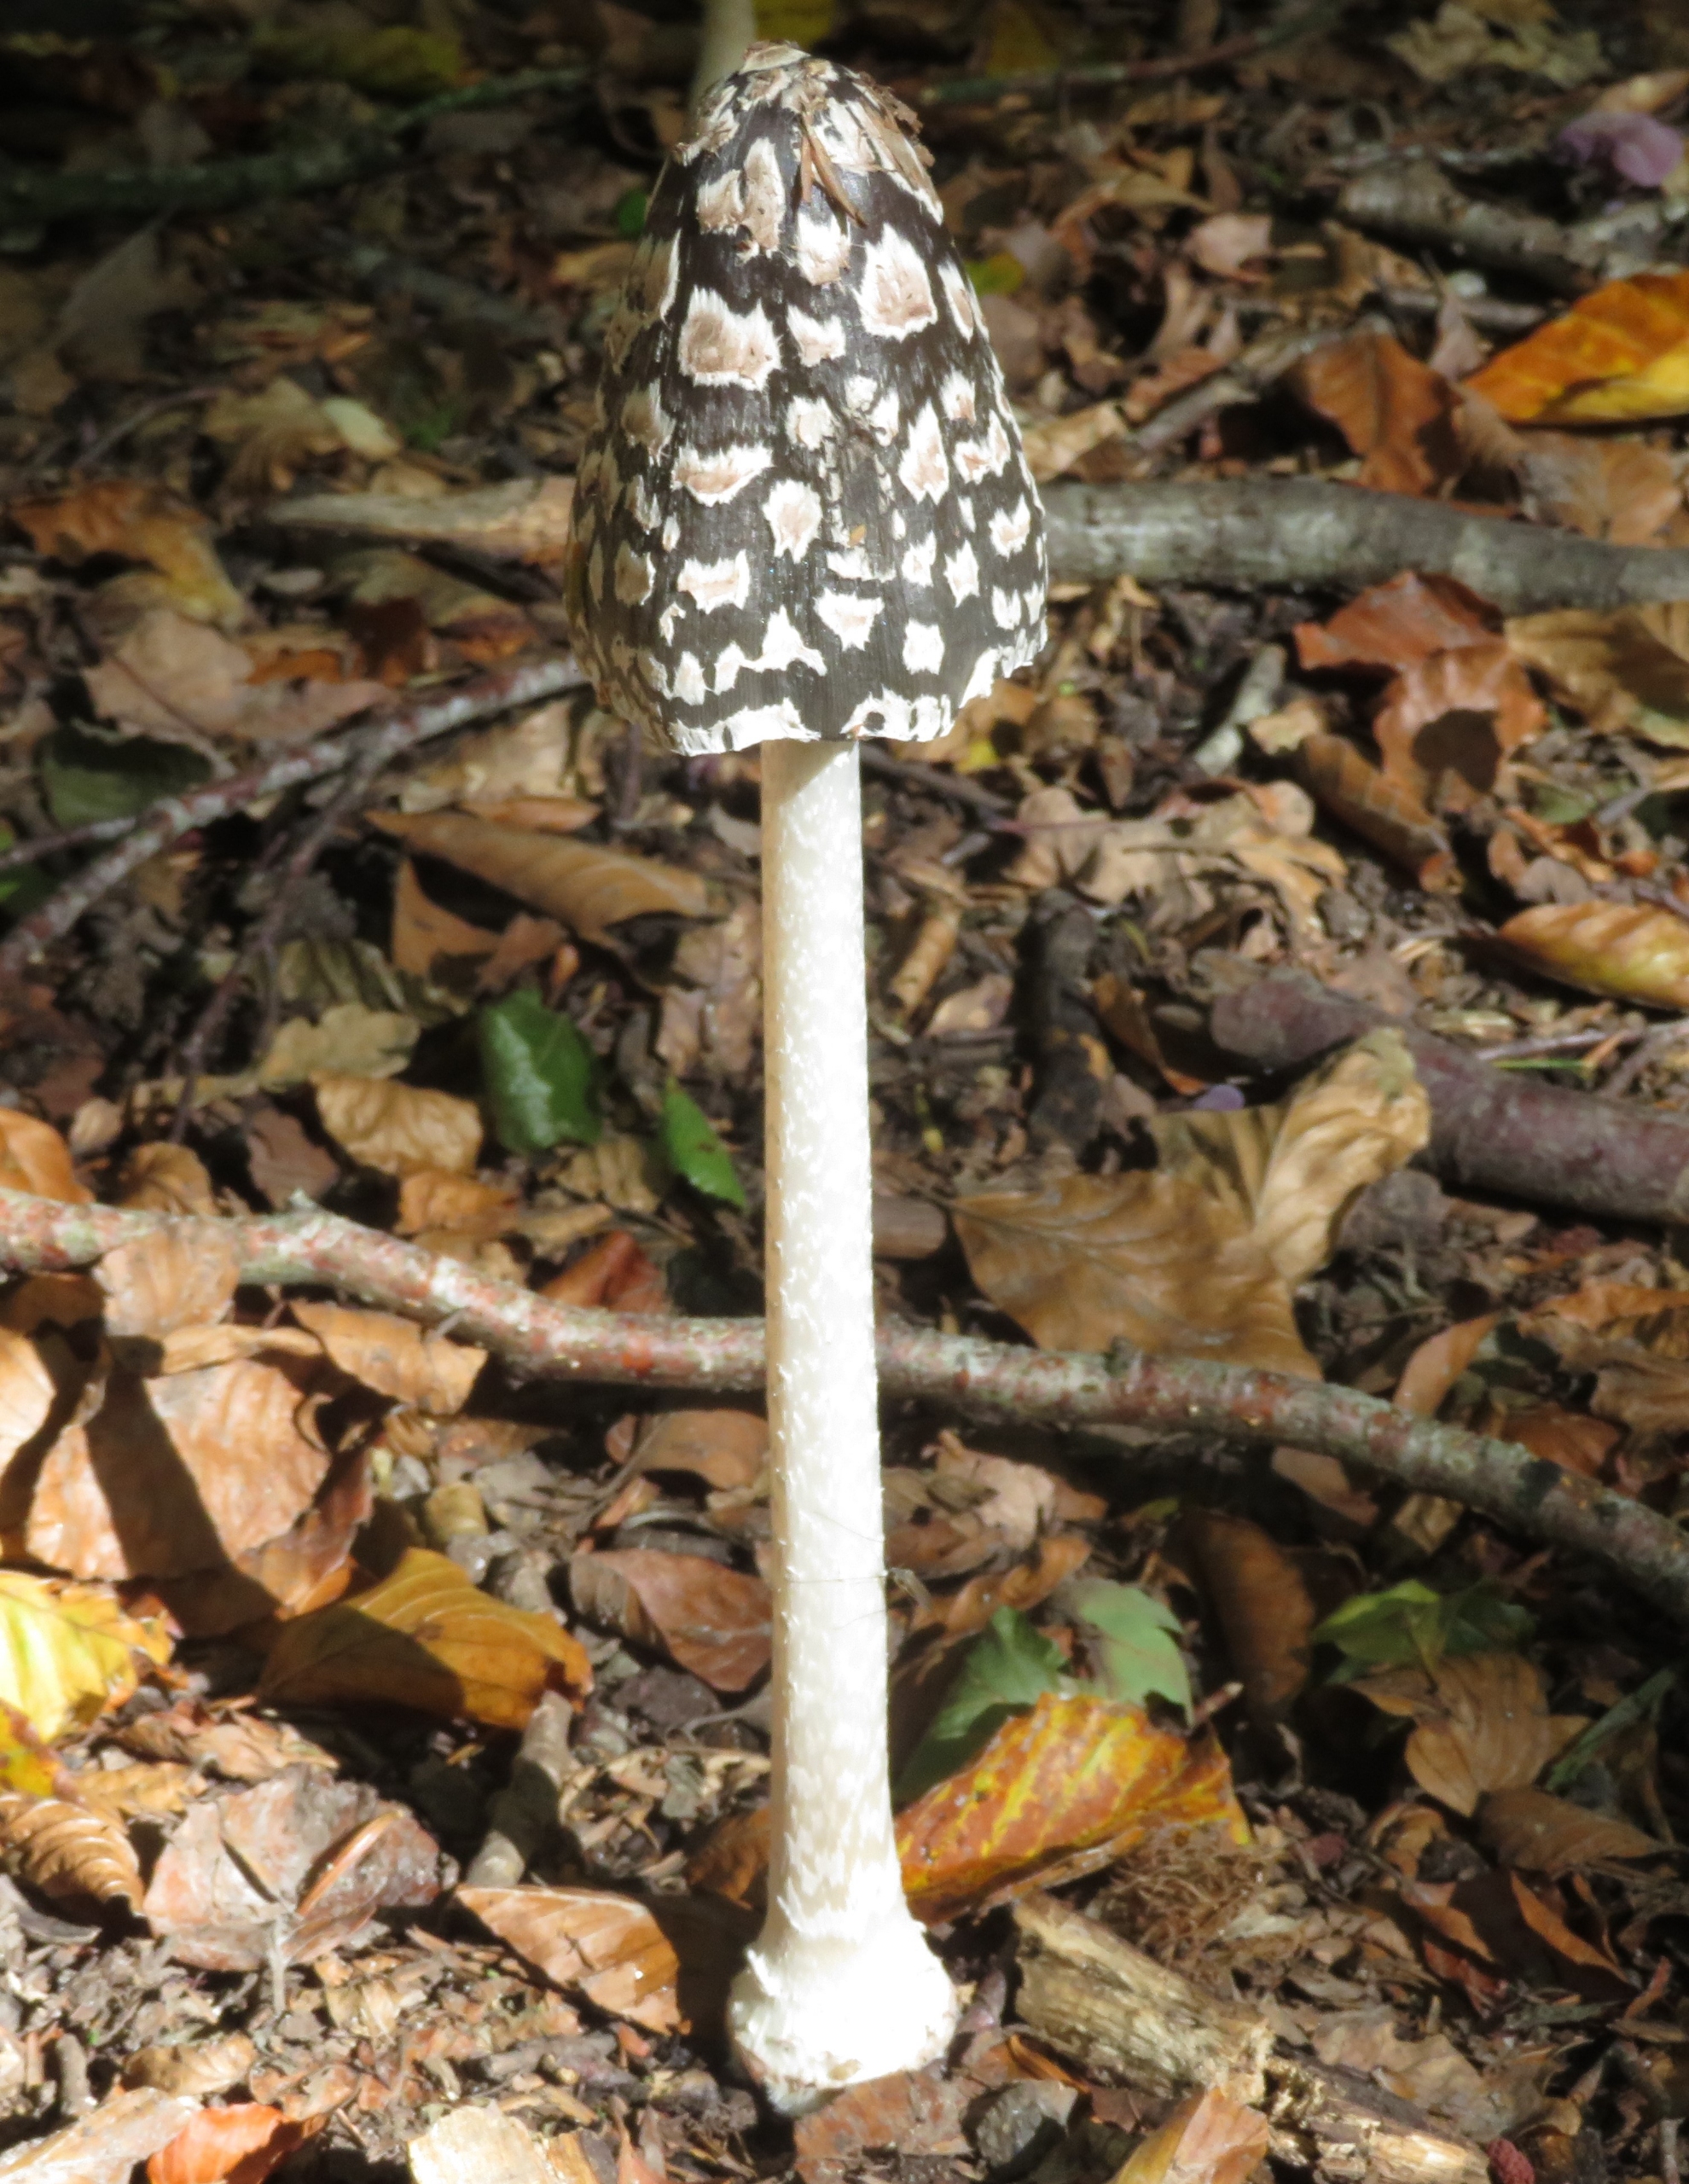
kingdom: Fungi
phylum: Basidiomycota
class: Agaricomycetes
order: Agaricales
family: Psathyrellaceae
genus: Coprinopsis
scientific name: Coprinopsis picacea
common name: Skade-blækhat
